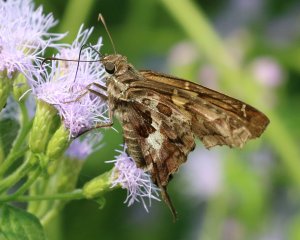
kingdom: Animalia
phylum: Arthropoda
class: Insecta
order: Lepidoptera
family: Hesperiidae
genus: Chioides
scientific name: Chioides zilpa
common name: Zilpa Longtail
